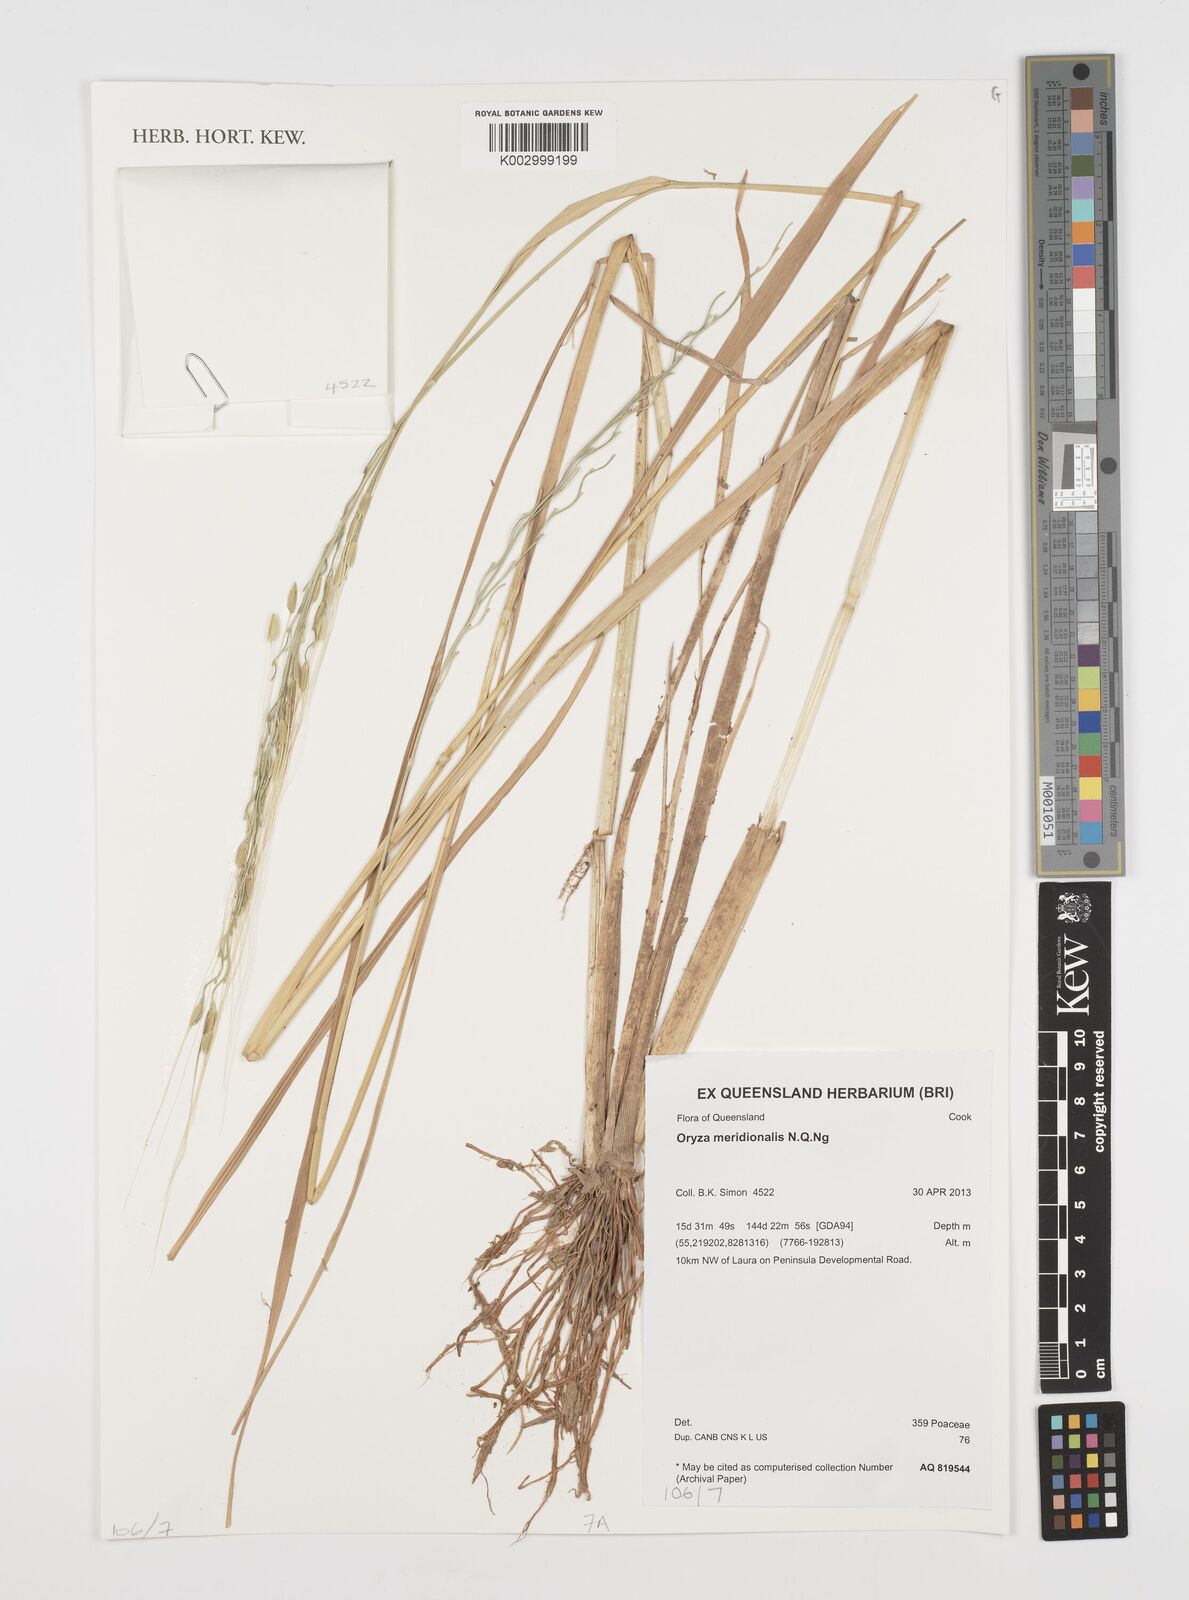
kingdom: Plantae
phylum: Tracheophyta
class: Liliopsida
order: Poales
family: Poaceae
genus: Oryza
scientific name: Oryza rufipogon
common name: Red rice
